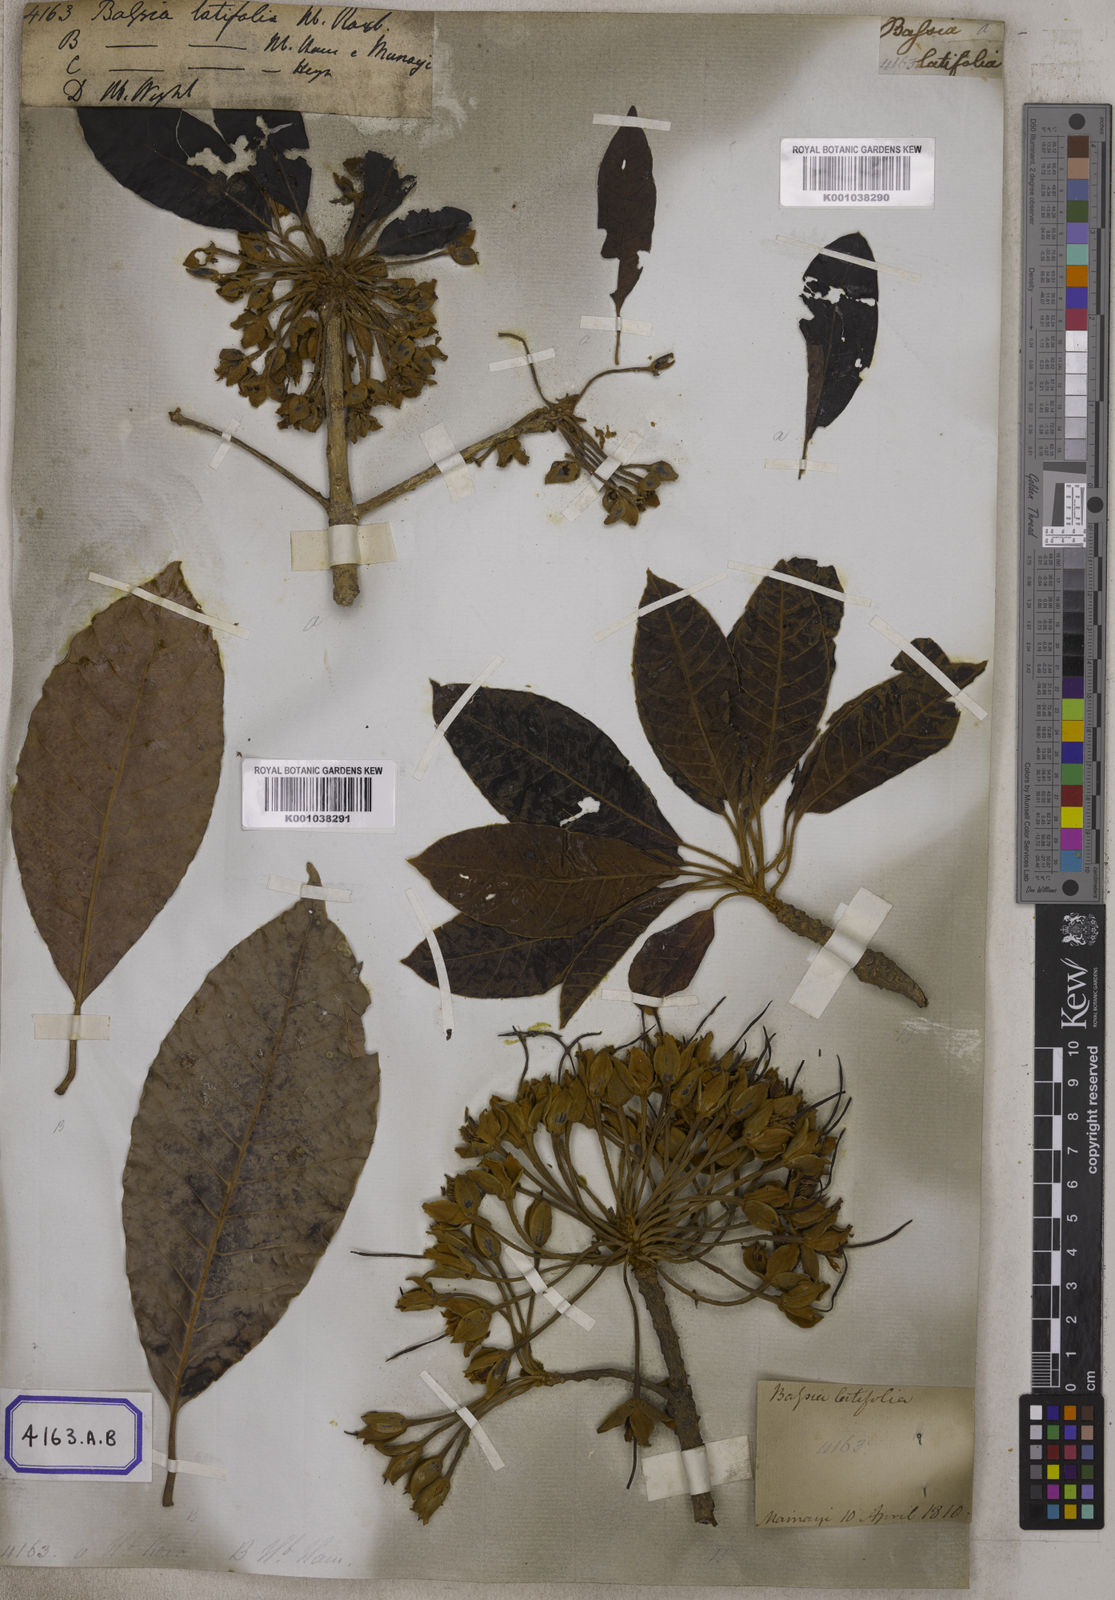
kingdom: Plantae
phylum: Tracheophyta
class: Magnoliopsida
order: Ericales
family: Sapotaceae
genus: Madhuca
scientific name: Madhuca longifolia
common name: Mowra-buttertree
